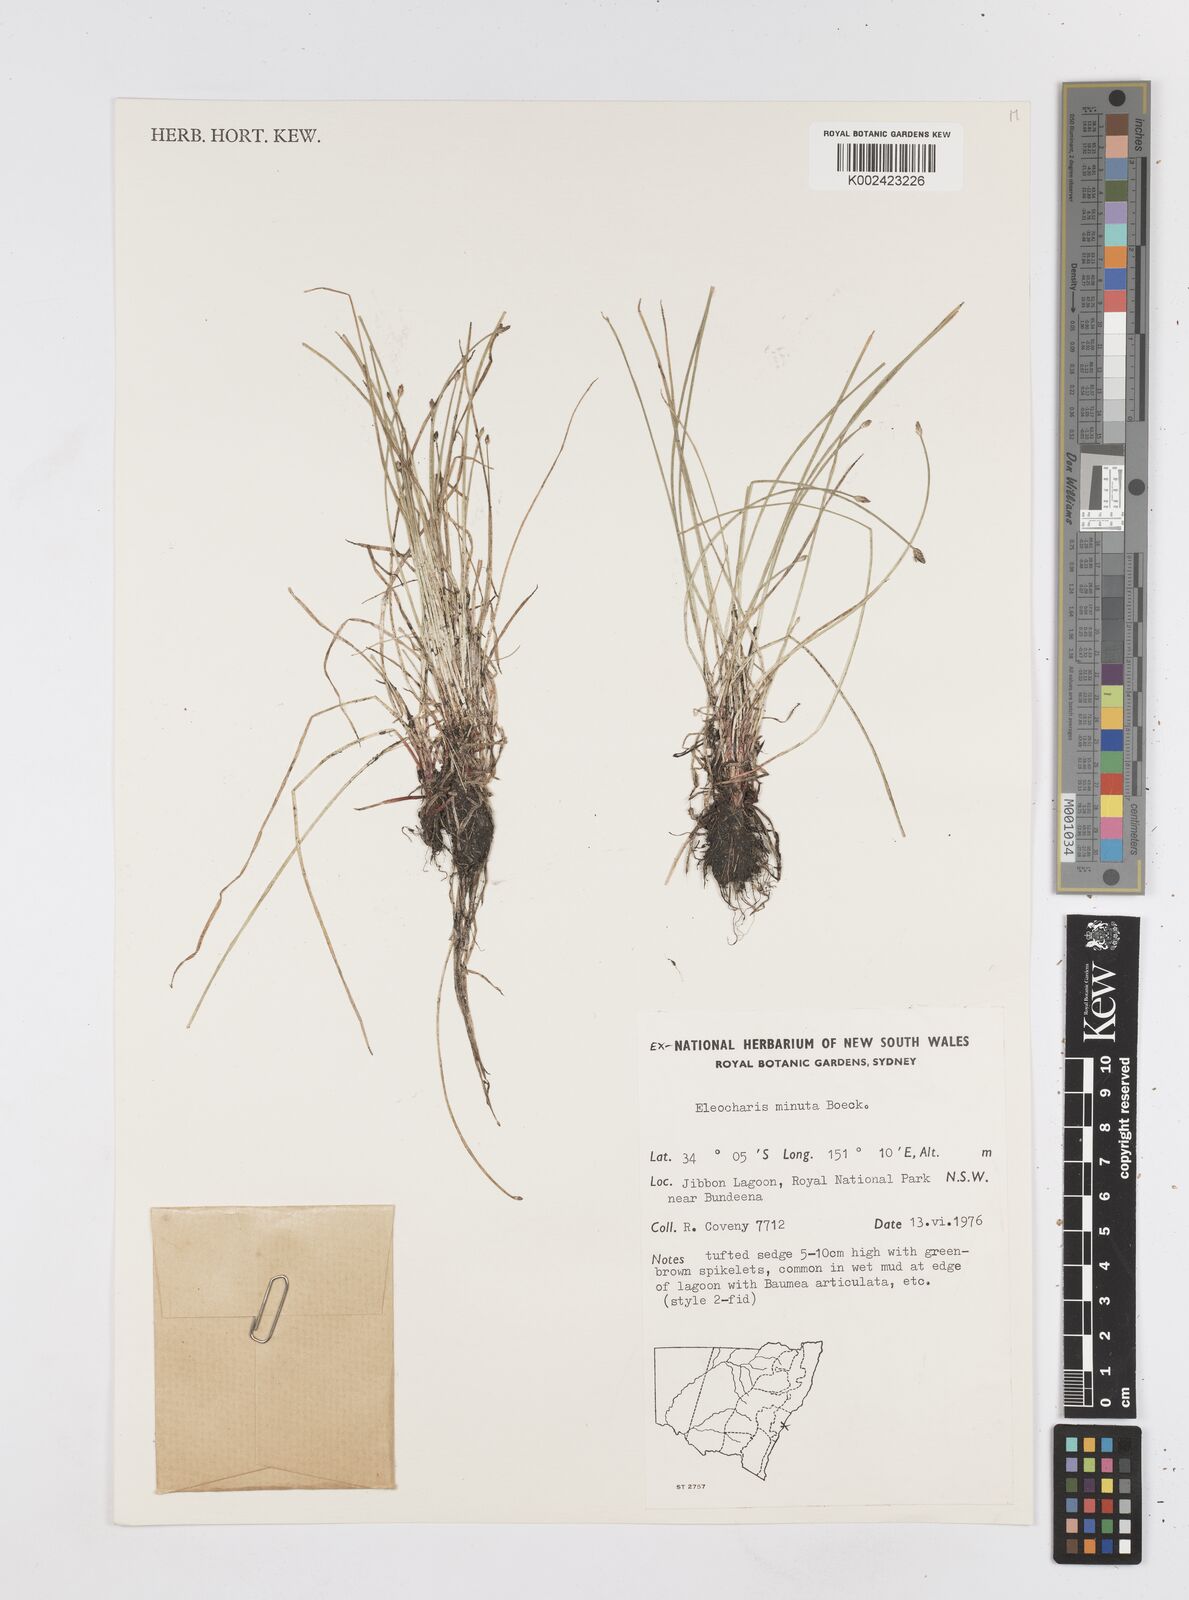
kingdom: Plantae
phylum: Tracheophyta
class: Liliopsida
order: Poales
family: Cyperaceae
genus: Eleocharis
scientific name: Eleocharis minuta
